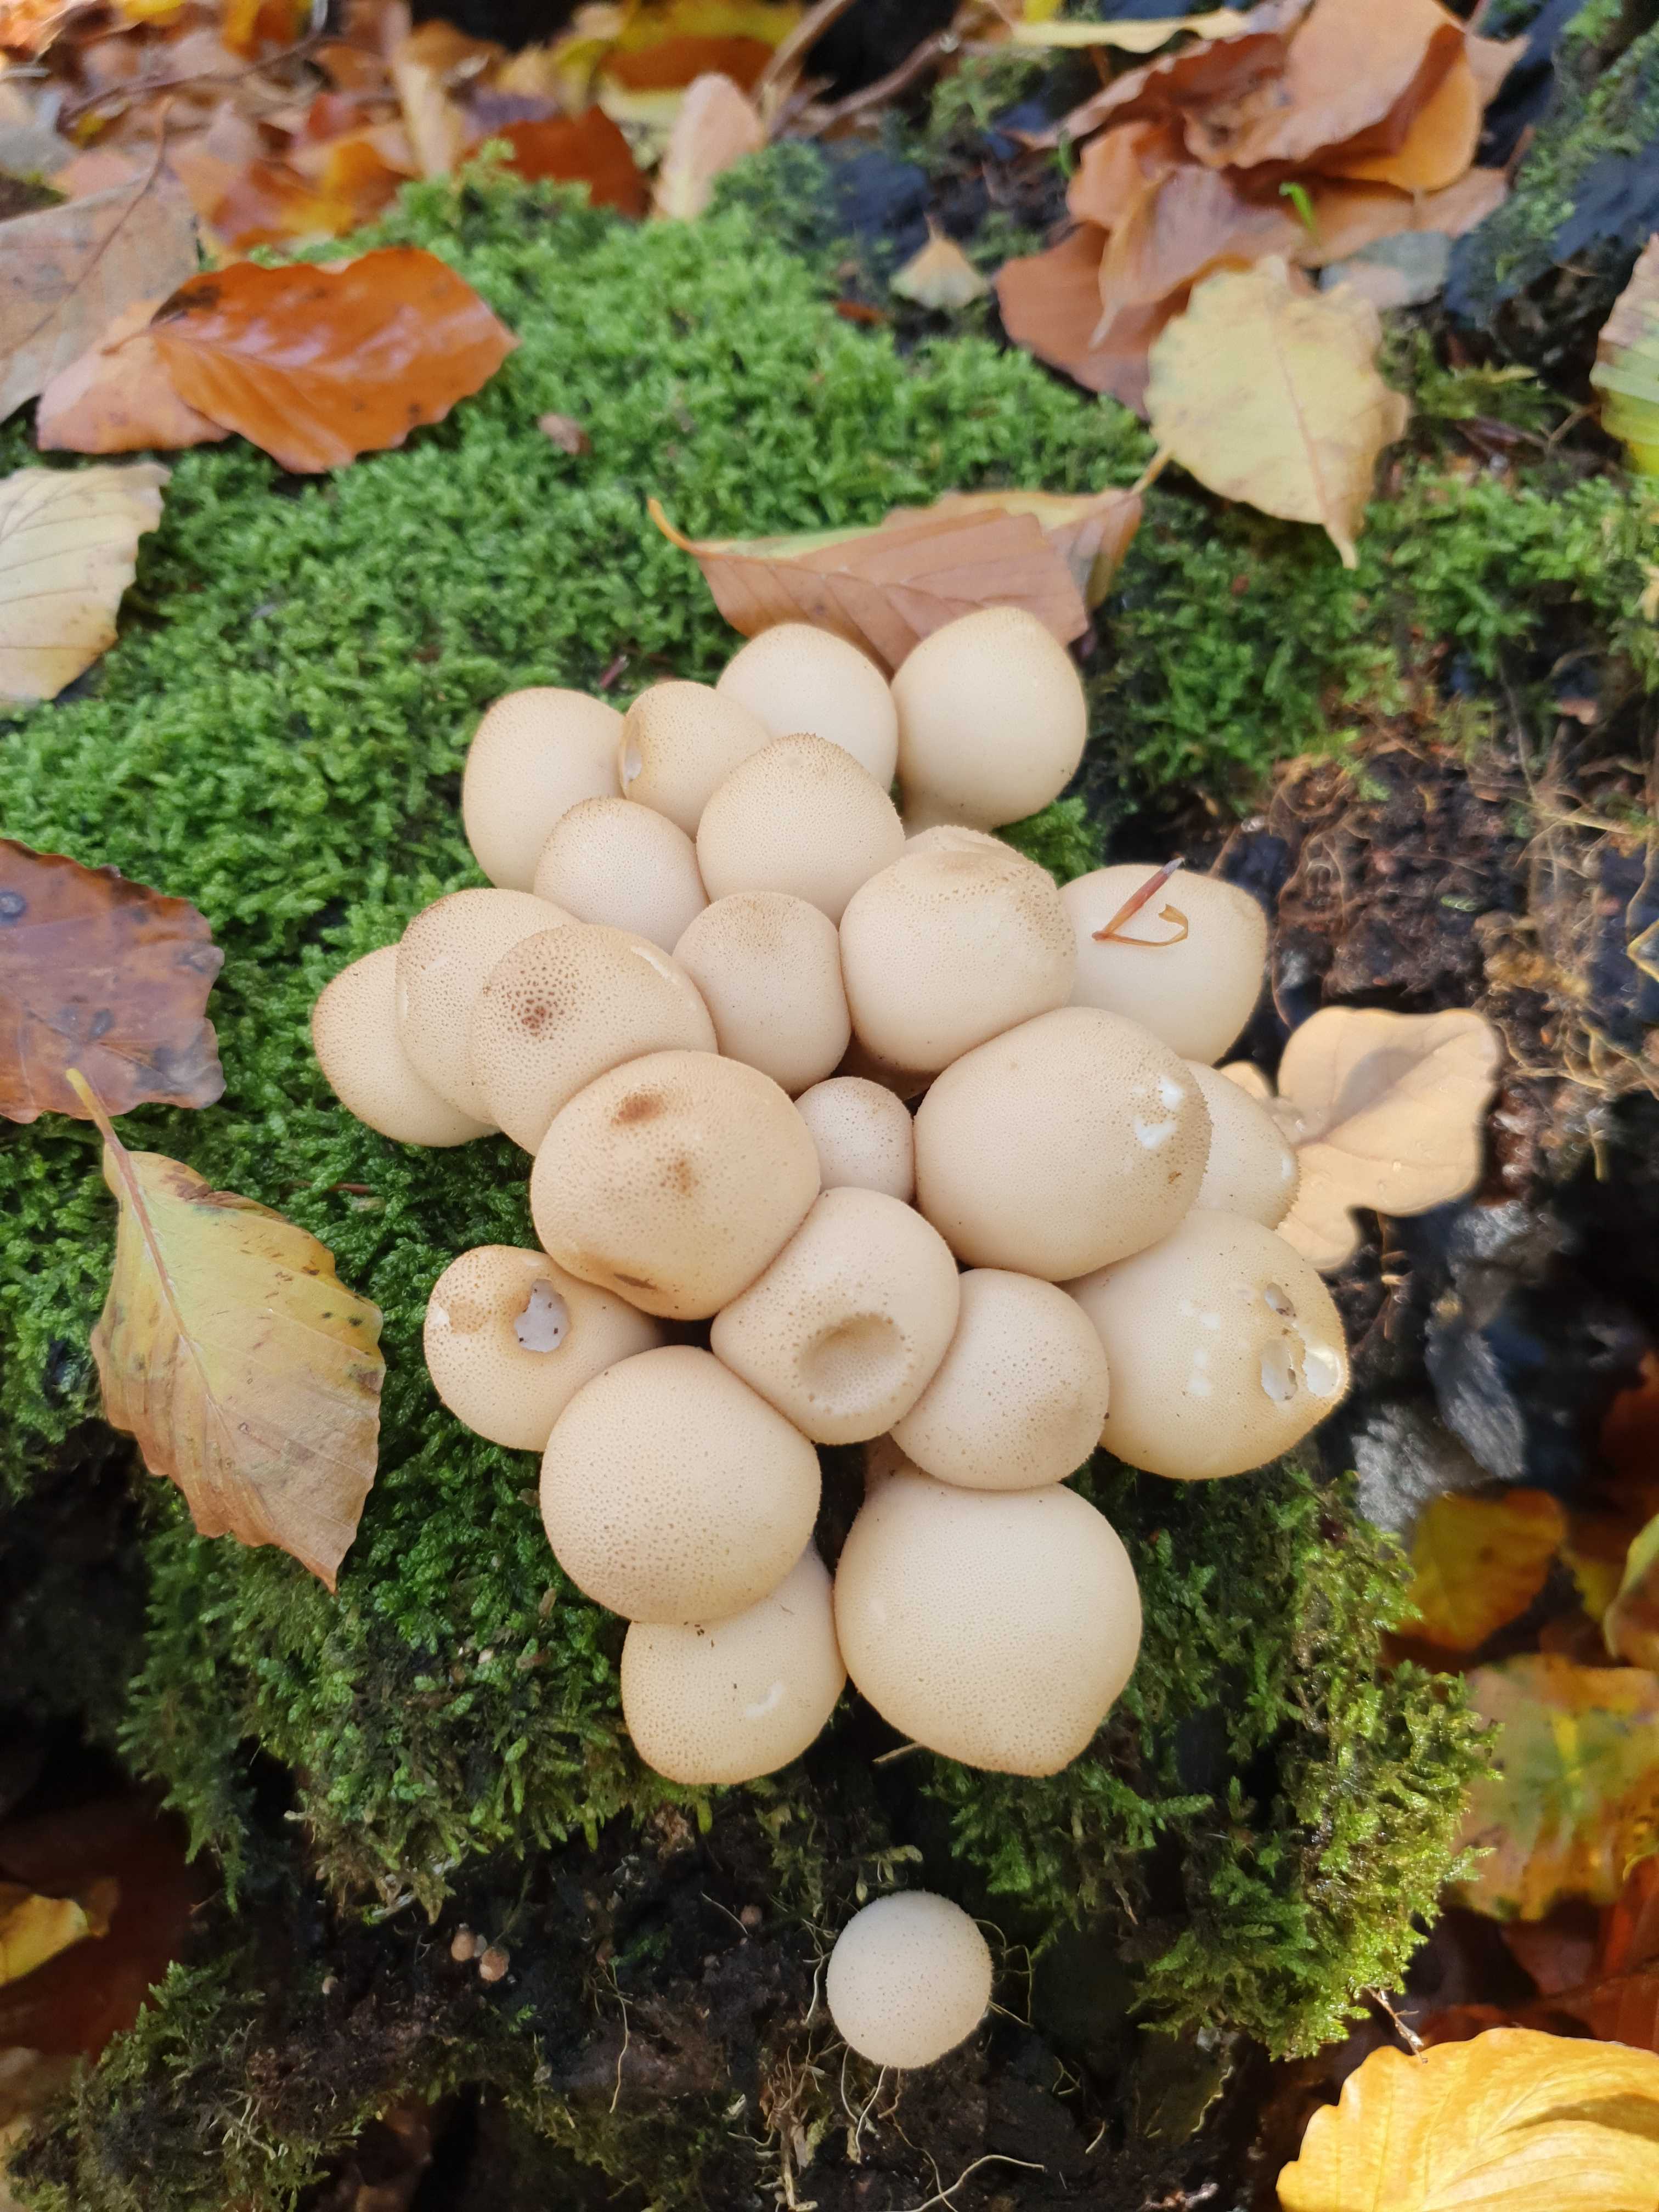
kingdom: Fungi
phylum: Basidiomycota
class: Agaricomycetes
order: Agaricales
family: Lycoperdaceae
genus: Apioperdon
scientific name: Apioperdon pyriforme
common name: pære-støvbold
